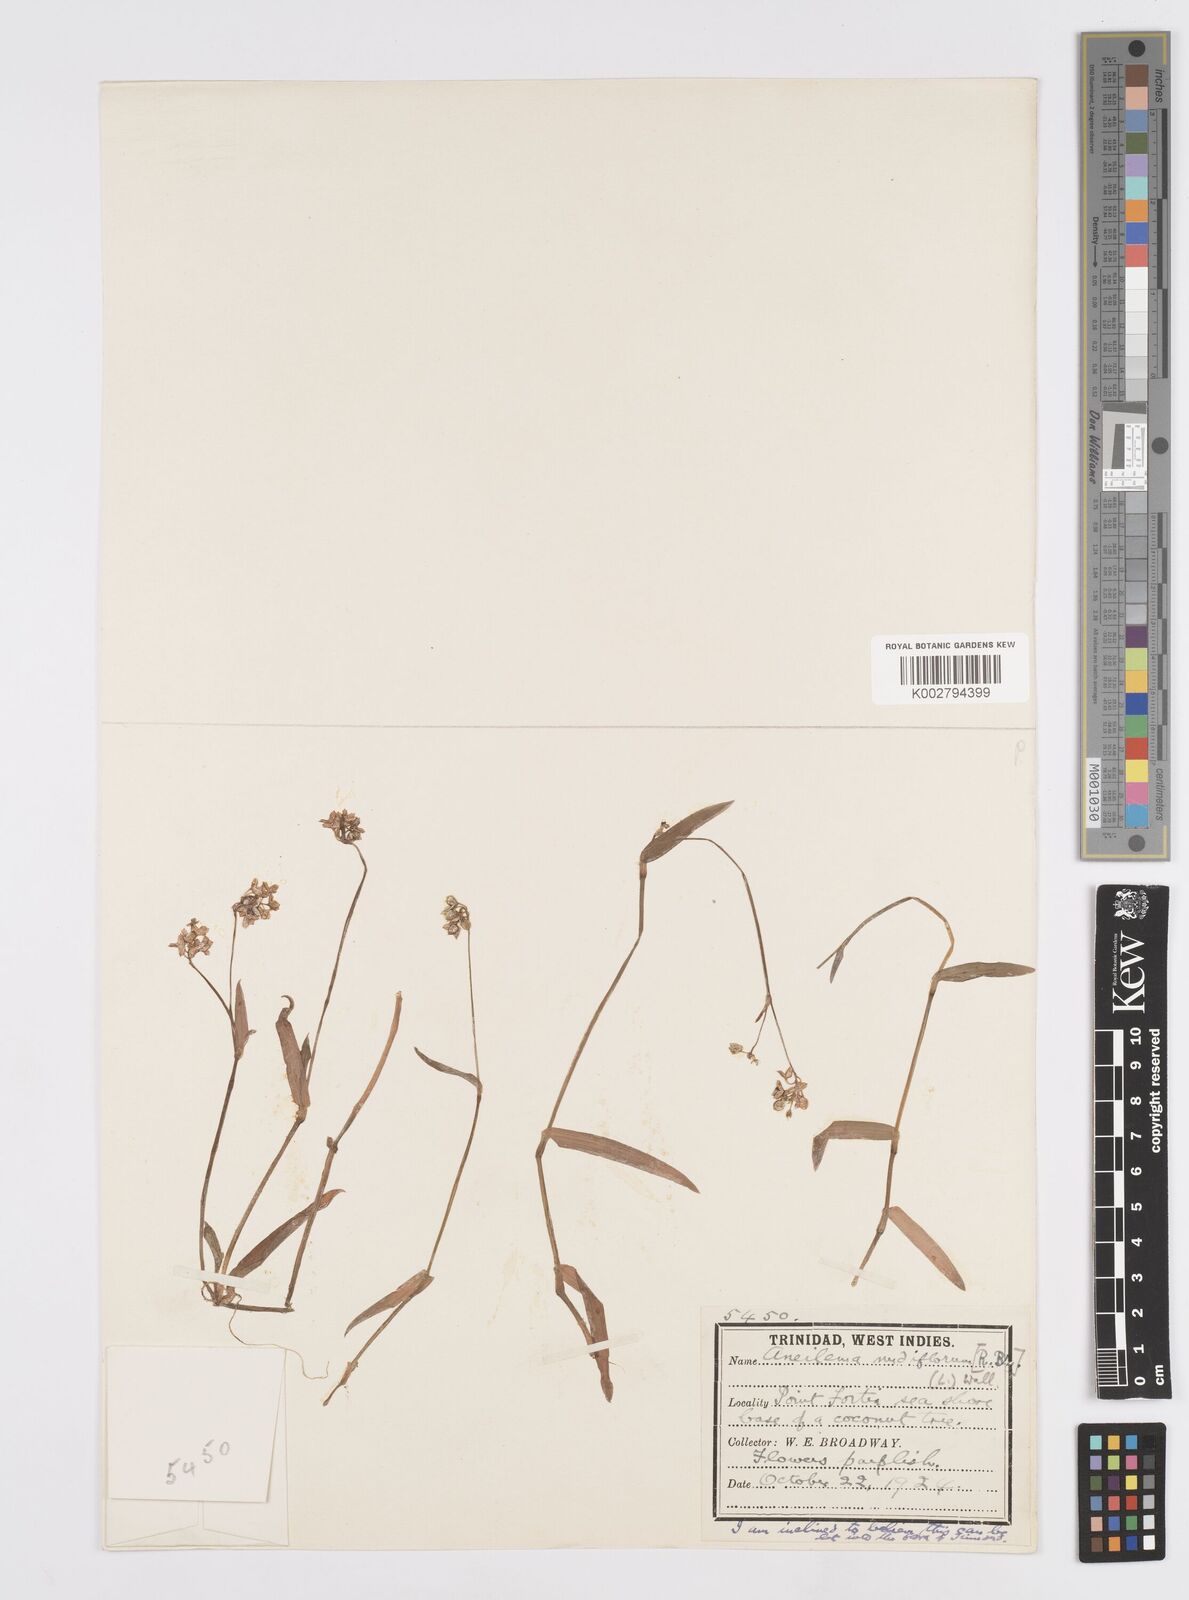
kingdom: Plantae
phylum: Tracheophyta
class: Liliopsida
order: Commelinales
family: Commelinaceae
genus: Murdannia
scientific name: Murdannia nudiflora
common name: Nakedstem dewflower
